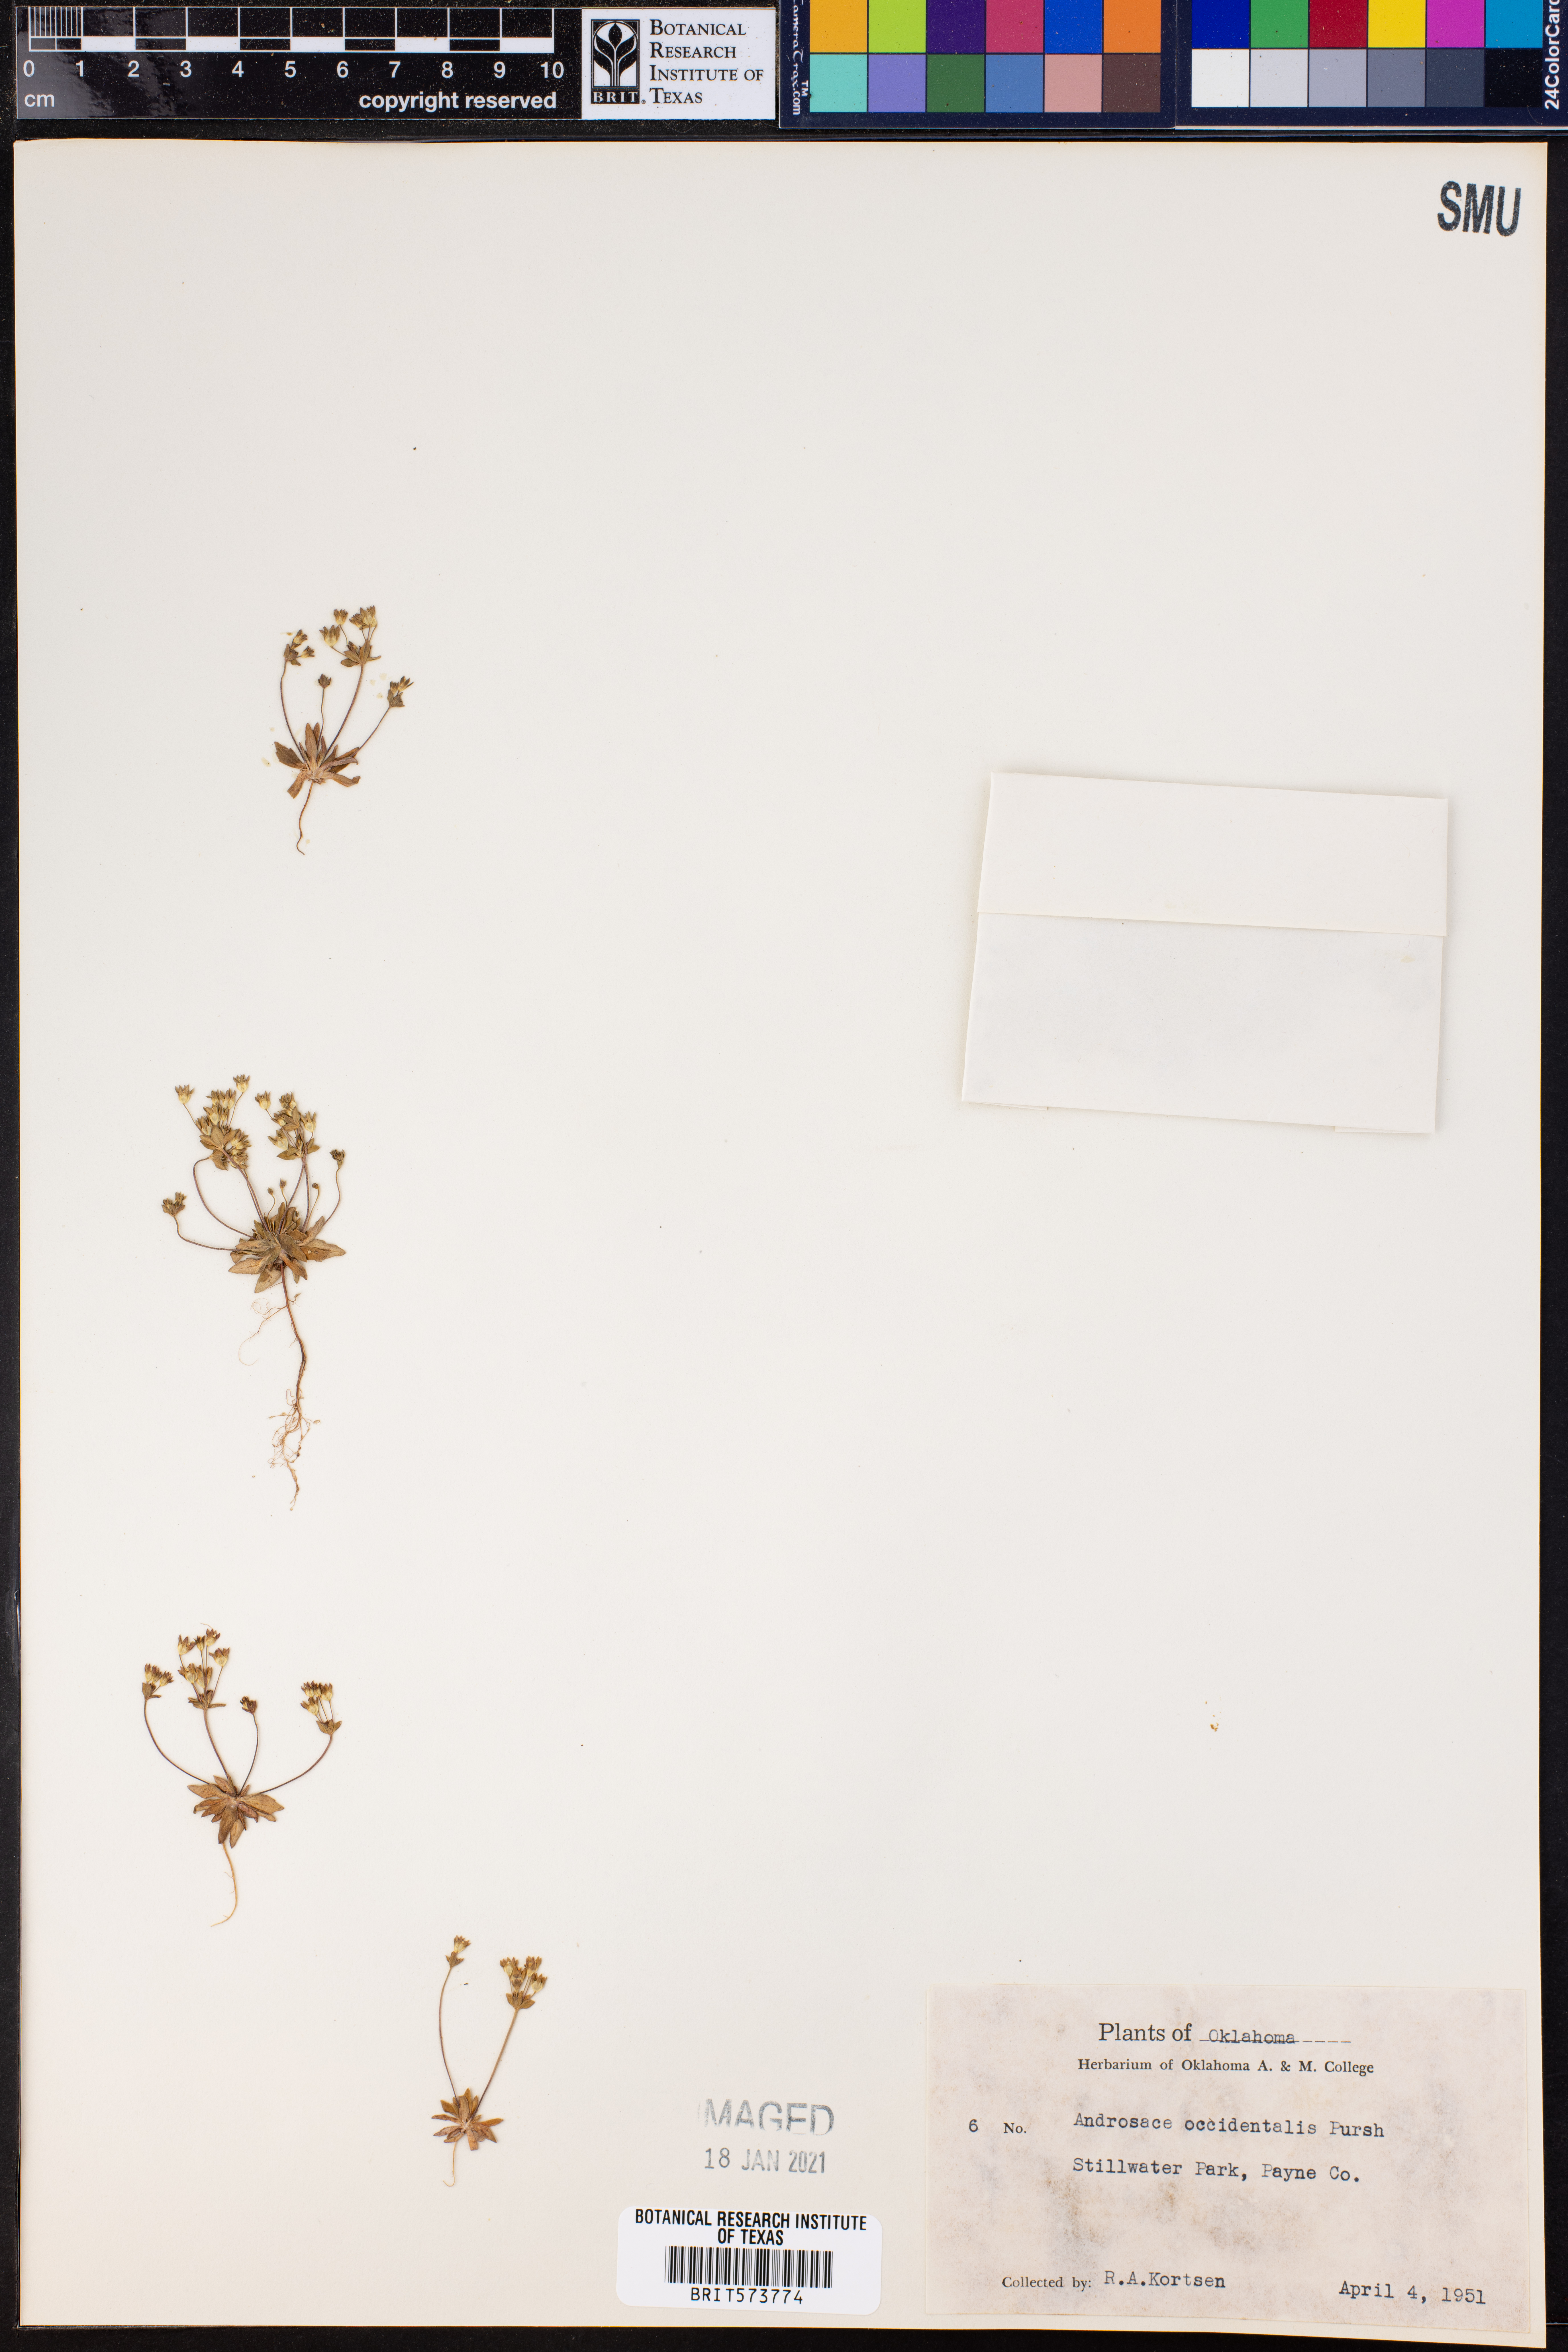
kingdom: Plantae
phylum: Tracheophyta
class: Magnoliopsida
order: Ericales
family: Primulaceae
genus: Androsace
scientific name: Androsace occidentalis
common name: West rock-jasmine
